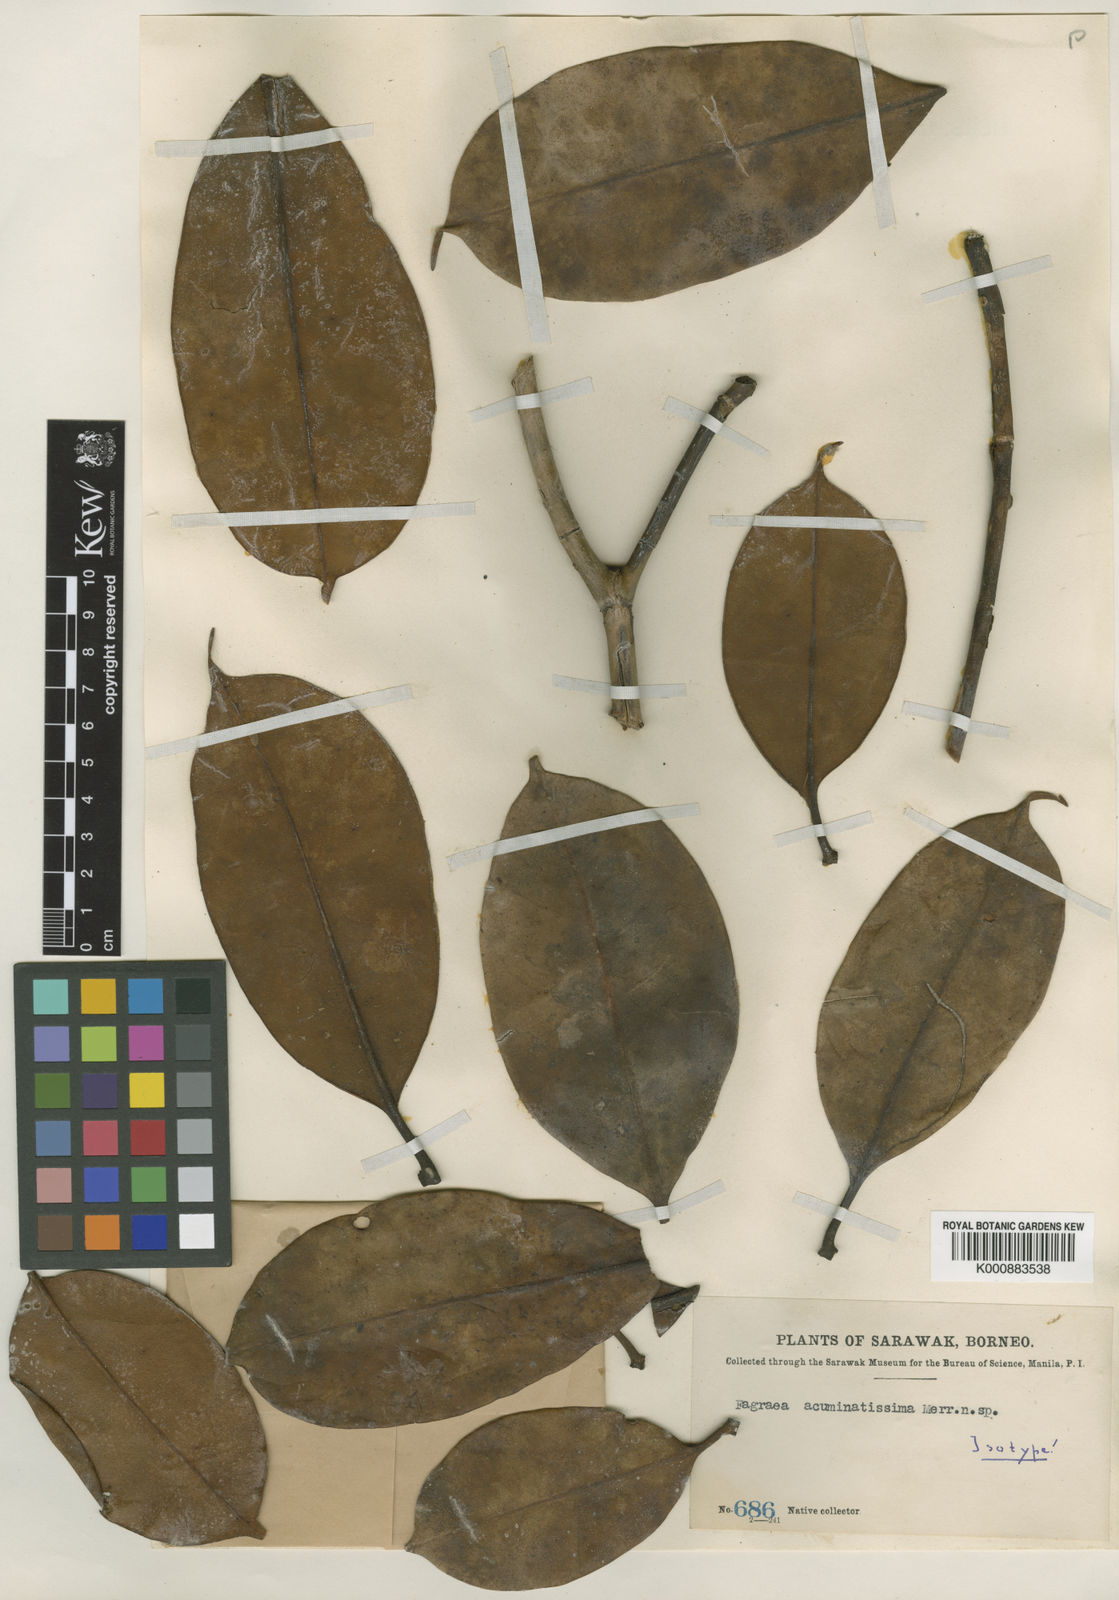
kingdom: Plantae
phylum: Tracheophyta
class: Magnoliopsida
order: Gentianales
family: Gentianaceae
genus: Fagraea
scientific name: Fagraea splendens
